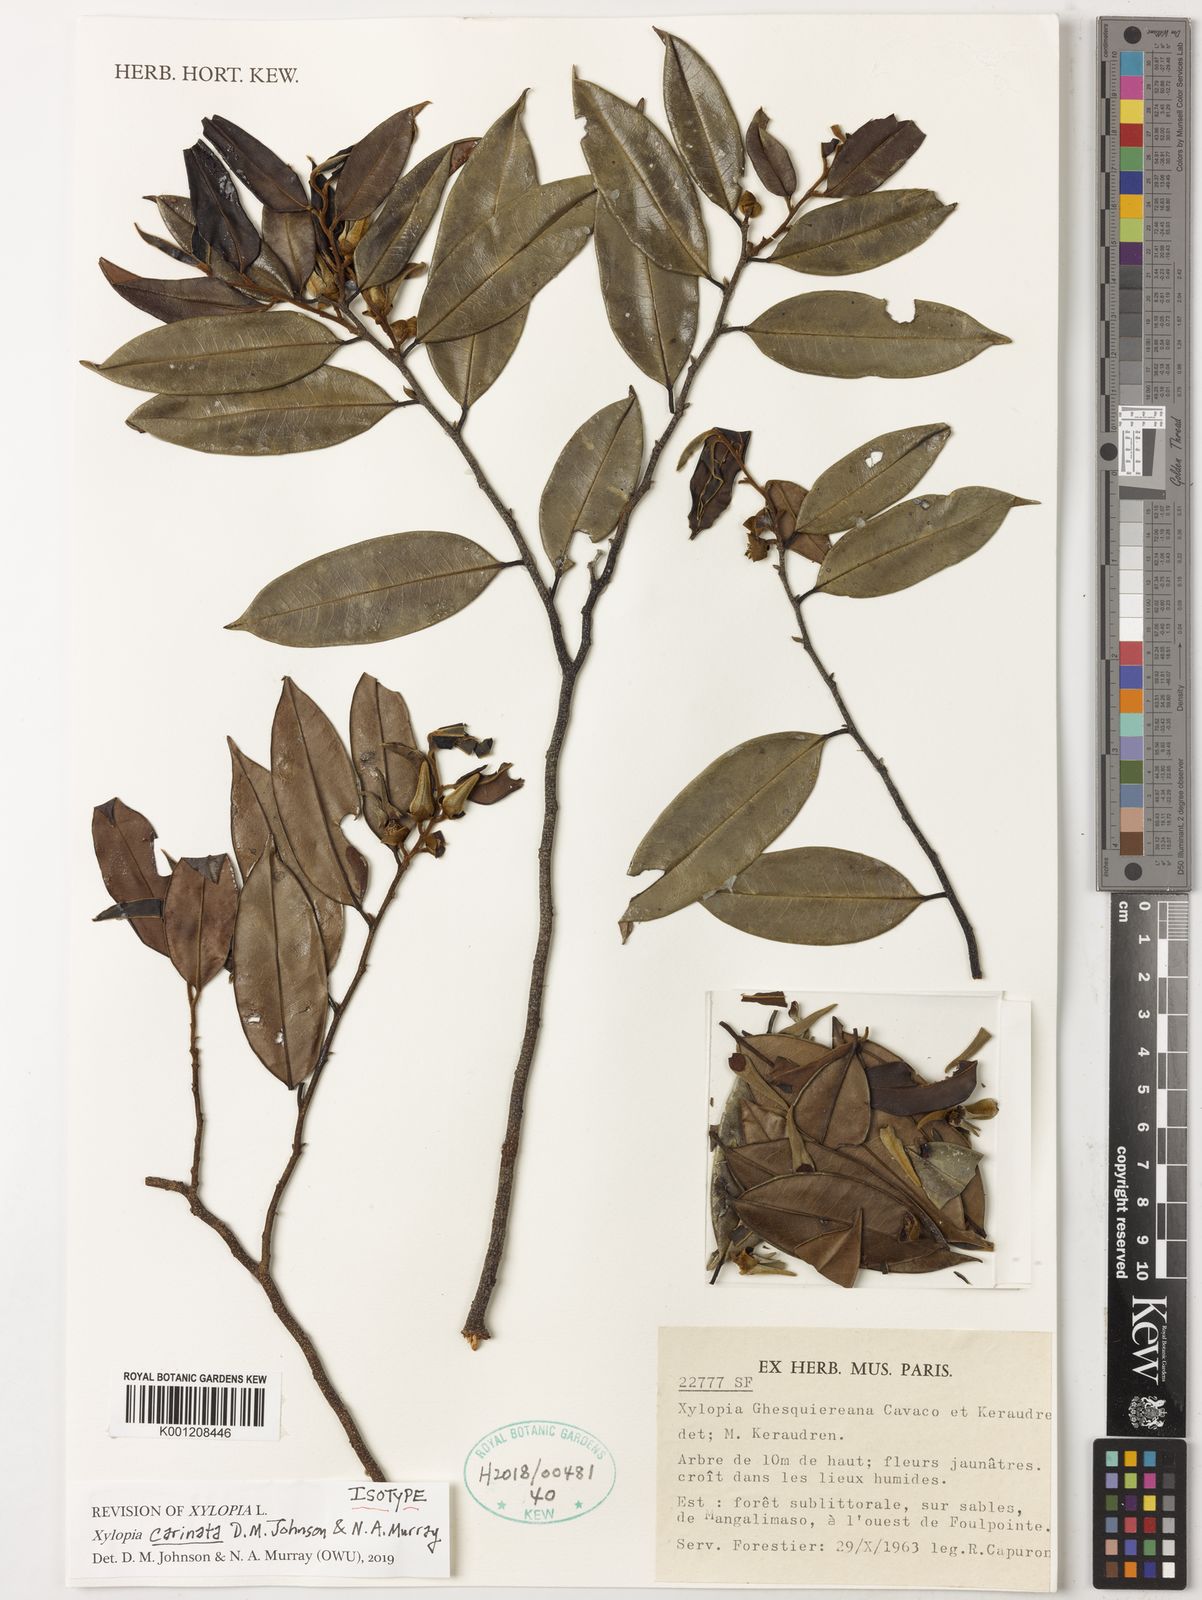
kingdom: Plantae
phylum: Tracheophyta
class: Magnoliopsida
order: Magnoliales
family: Annonaceae
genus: Xylopia
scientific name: Xylopia
